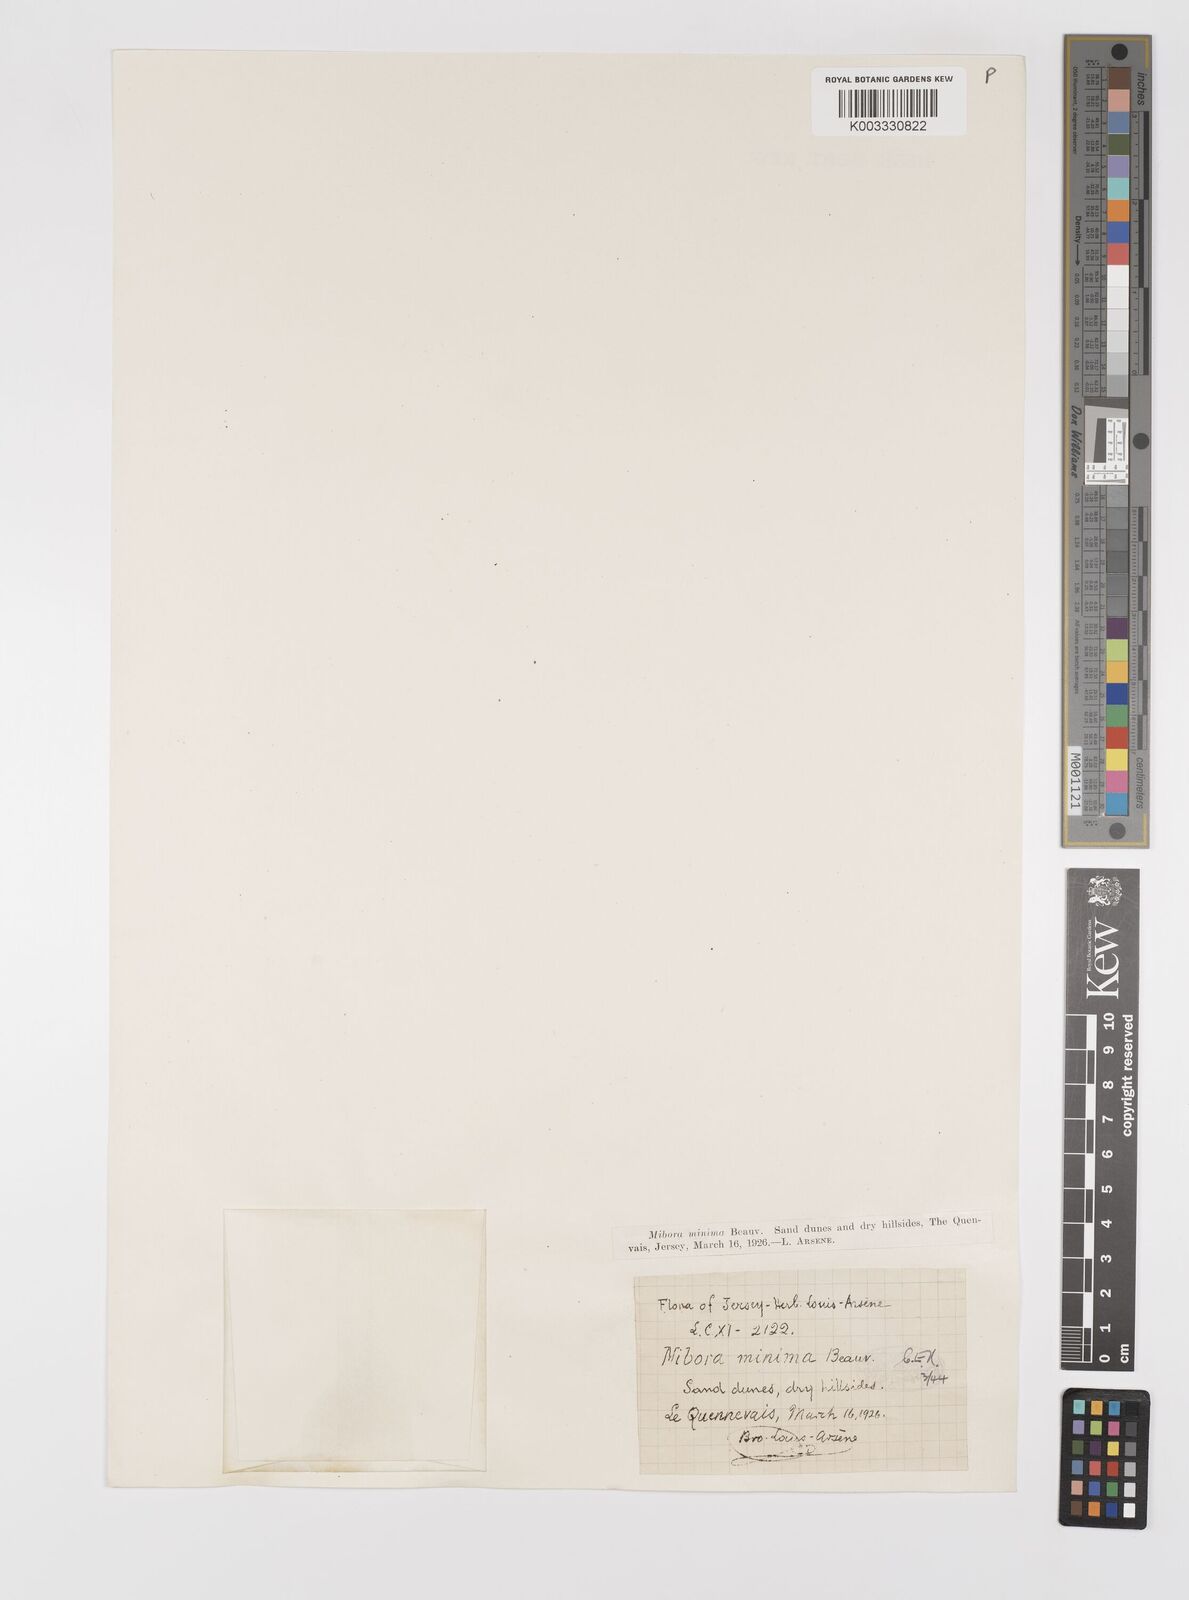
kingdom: Plantae
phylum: Tracheophyta
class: Liliopsida
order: Poales
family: Poaceae
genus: Mibora
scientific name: Mibora minima
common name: Early sand-grass
